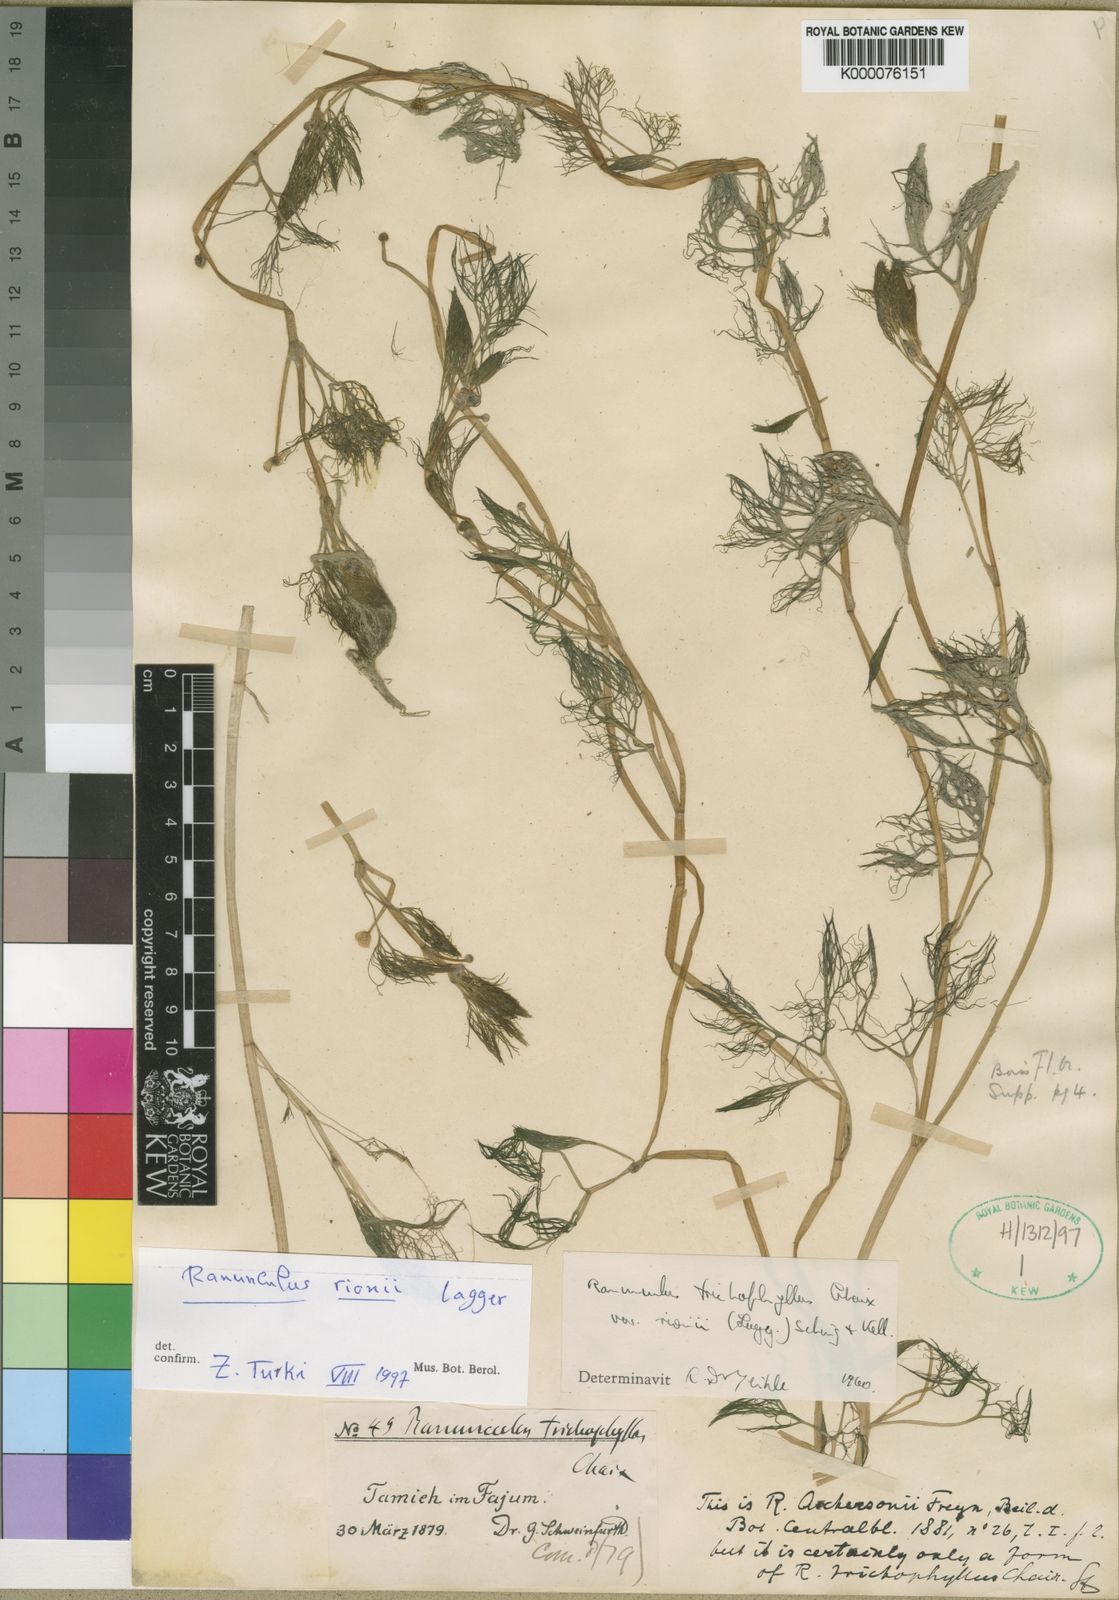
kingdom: Plantae
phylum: Tracheophyta
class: Magnoliopsida
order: Ranunculales
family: Ranunculaceae
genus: Ranunculus
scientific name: Ranunculus rionii
